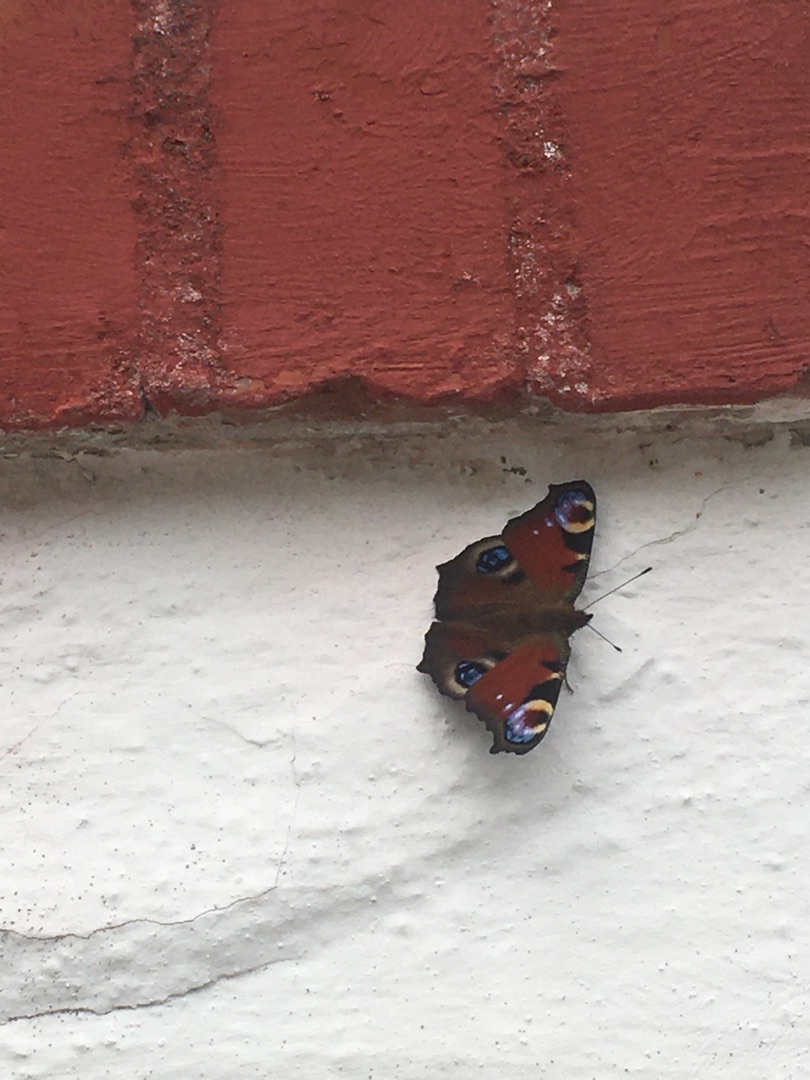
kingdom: Animalia
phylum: Arthropoda
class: Insecta
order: Lepidoptera
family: Nymphalidae
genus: Aglais
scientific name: Aglais io
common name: Dagpåfugleøje
